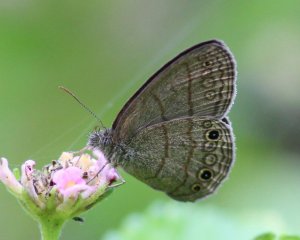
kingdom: Animalia
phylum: Arthropoda
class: Insecta
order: Lepidoptera
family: Nymphalidae
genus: Hermeuptychia
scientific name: Hermeuptychia hermes
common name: Carolina Satyr
